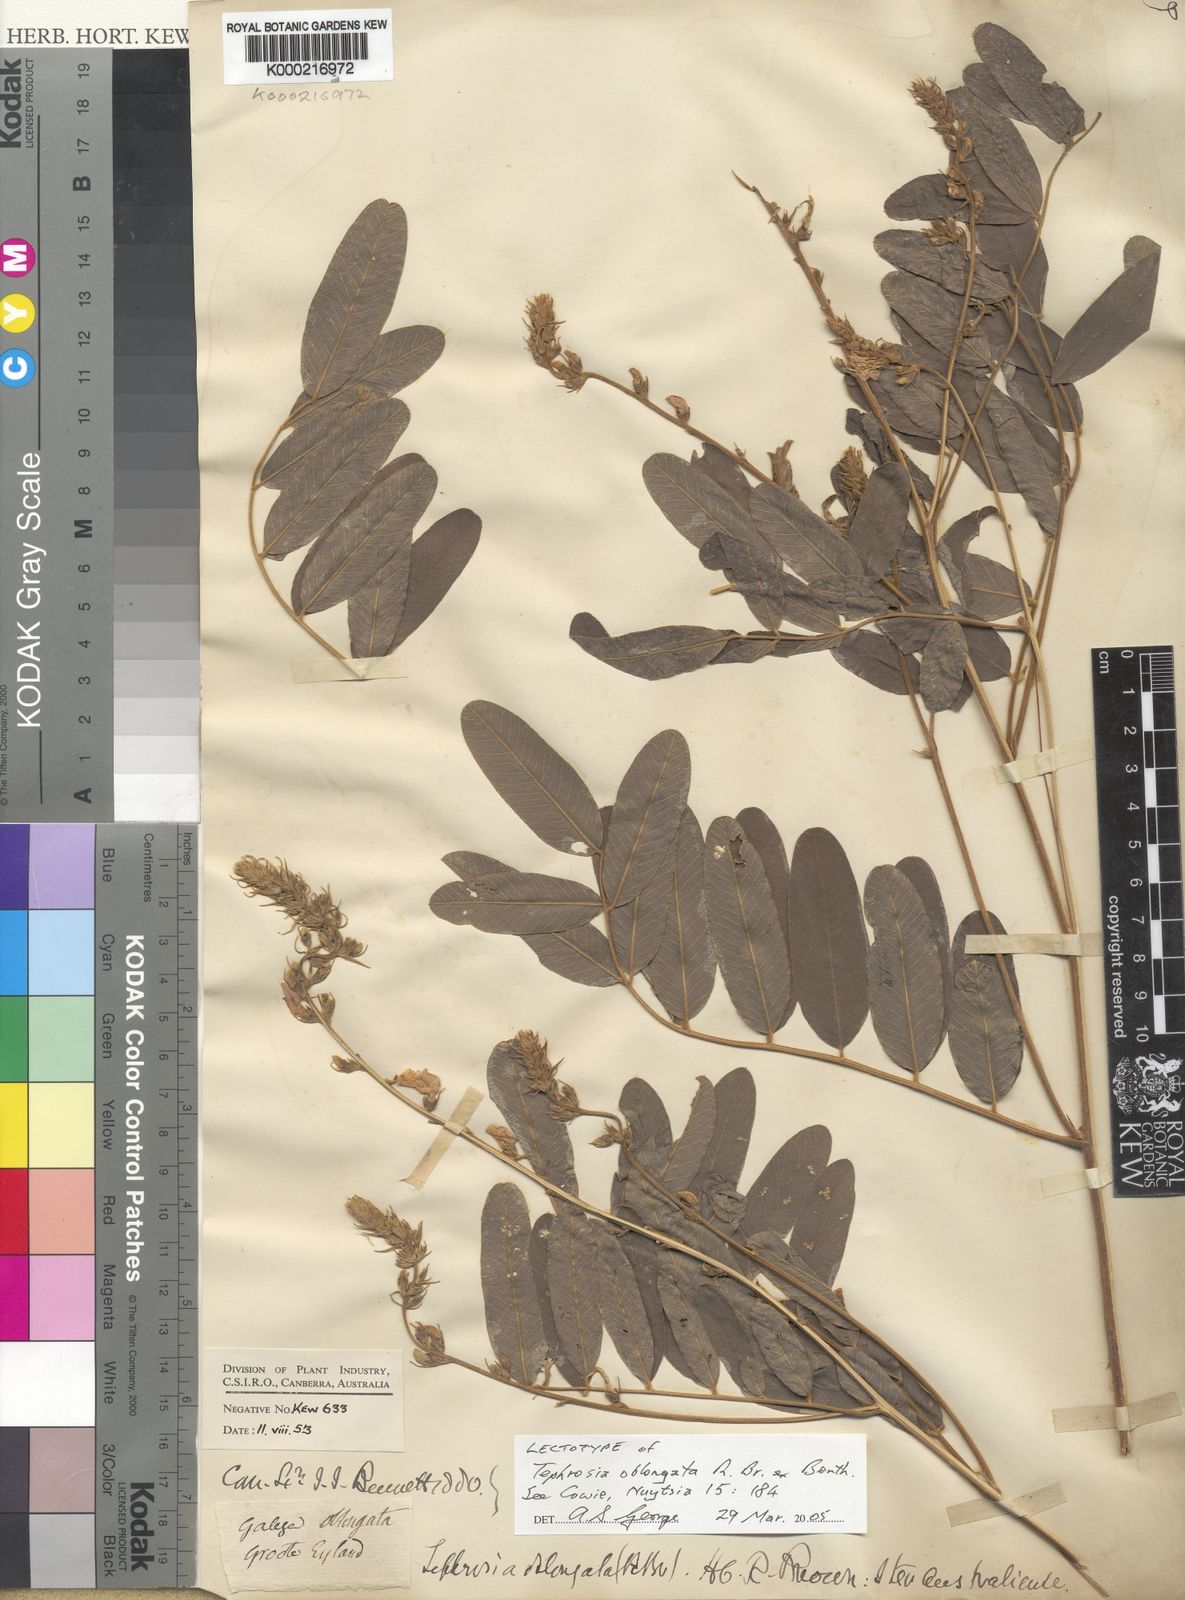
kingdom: Plantae
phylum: Tracheophyta
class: Magnoliopsida
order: Fabales
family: Fabaceae
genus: Tephrosia
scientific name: Tephrosia oblongata
